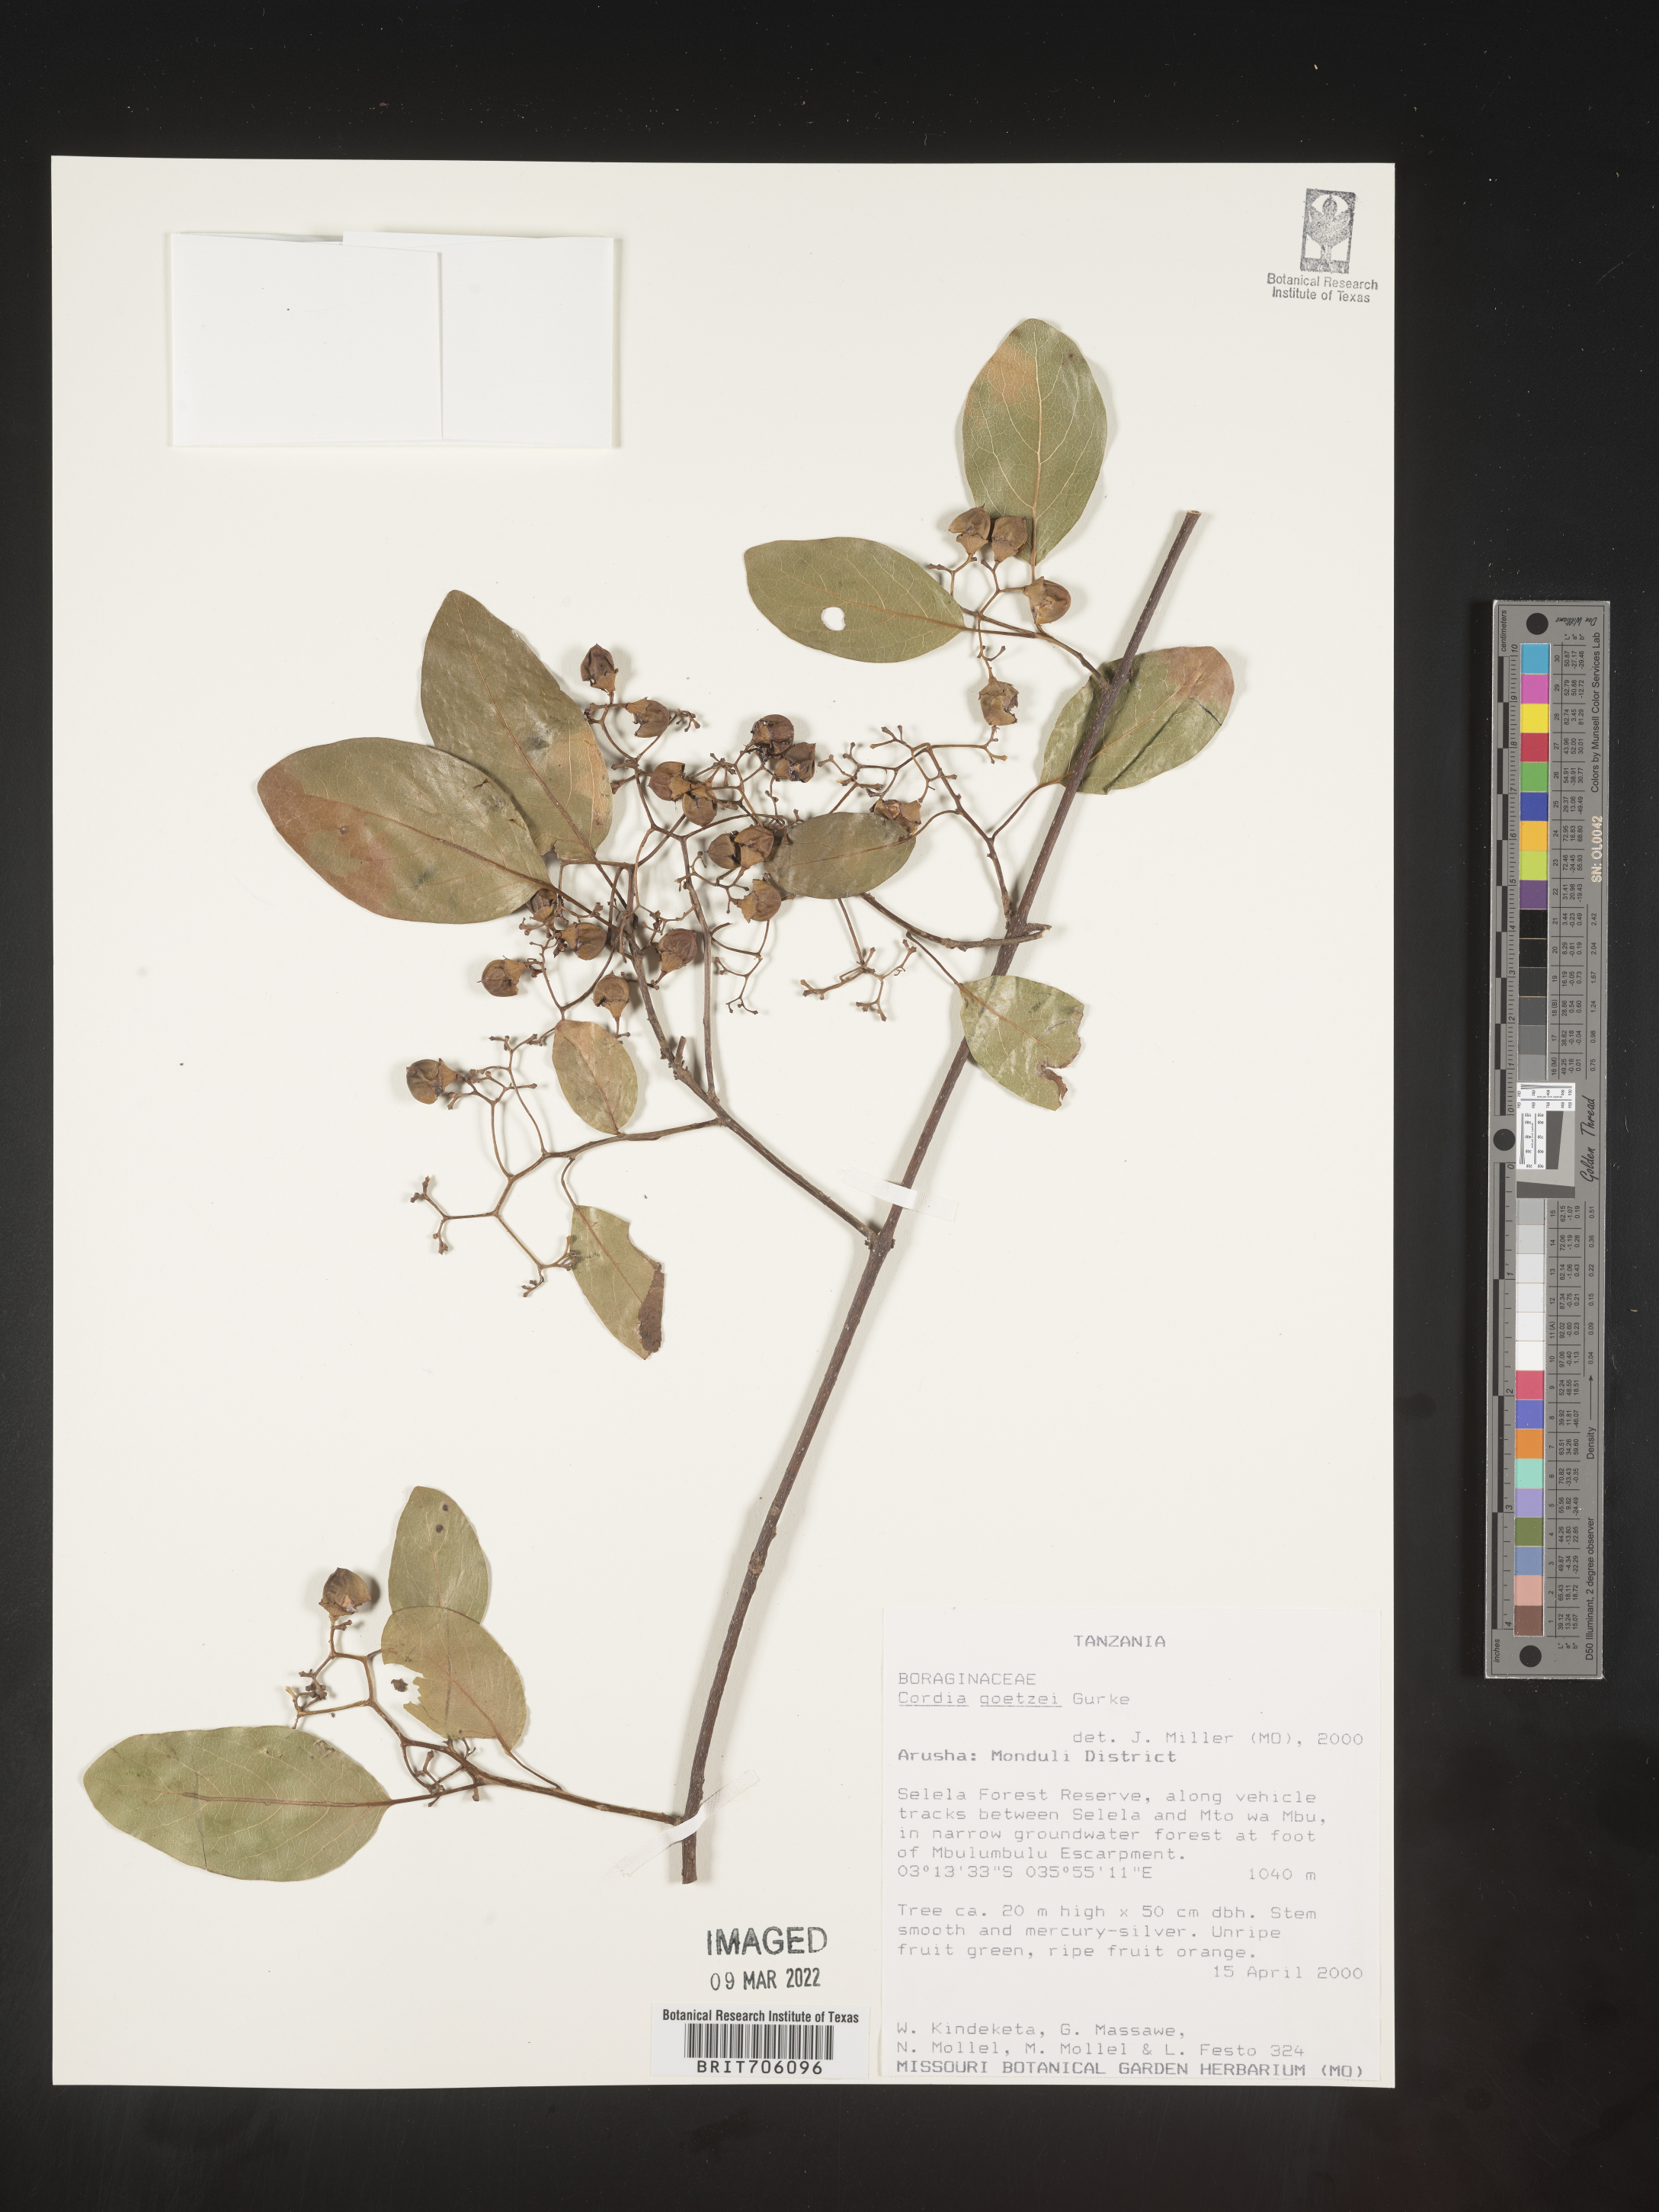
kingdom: Plantae
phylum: Tracheophyta
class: Magnoliopsida
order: Boraginales
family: Cordiaceae
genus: Cordia
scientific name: Cordia
